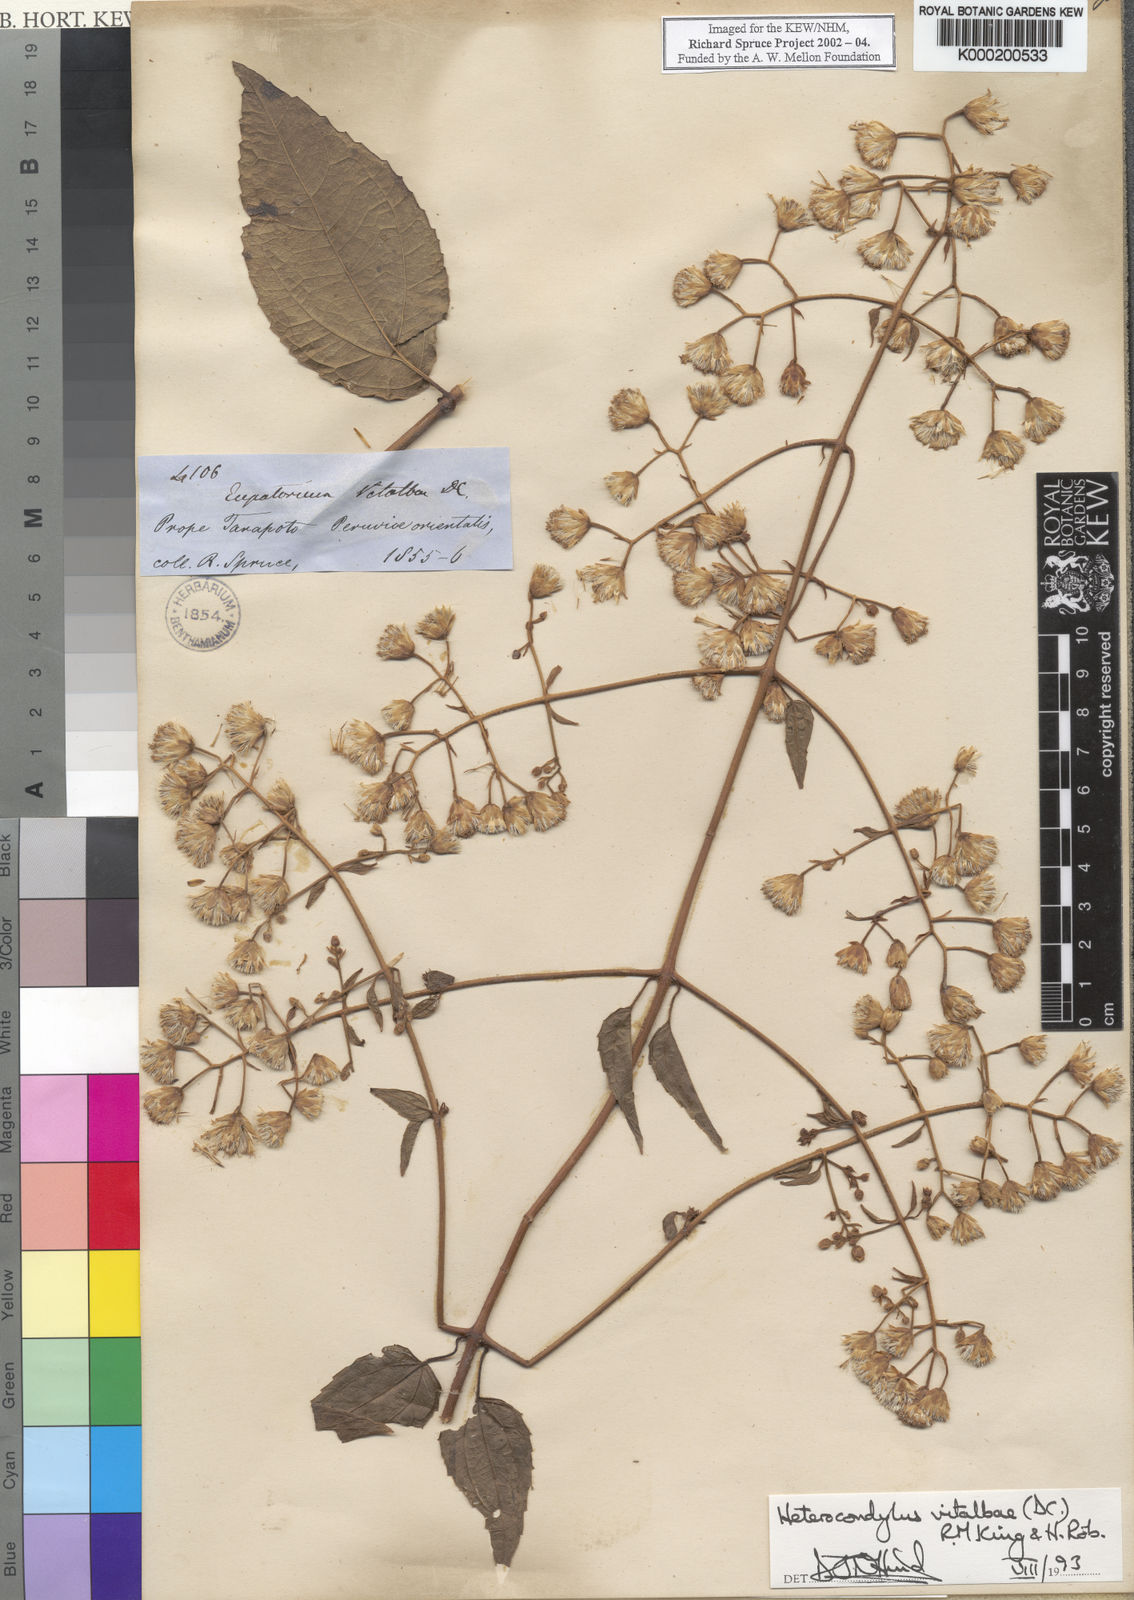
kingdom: Plantae
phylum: Tracheophyta
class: Magnoliopsida
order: Asterales
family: Asteraceae
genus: Heterocondylus
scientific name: Heterocondylus vitalbae
